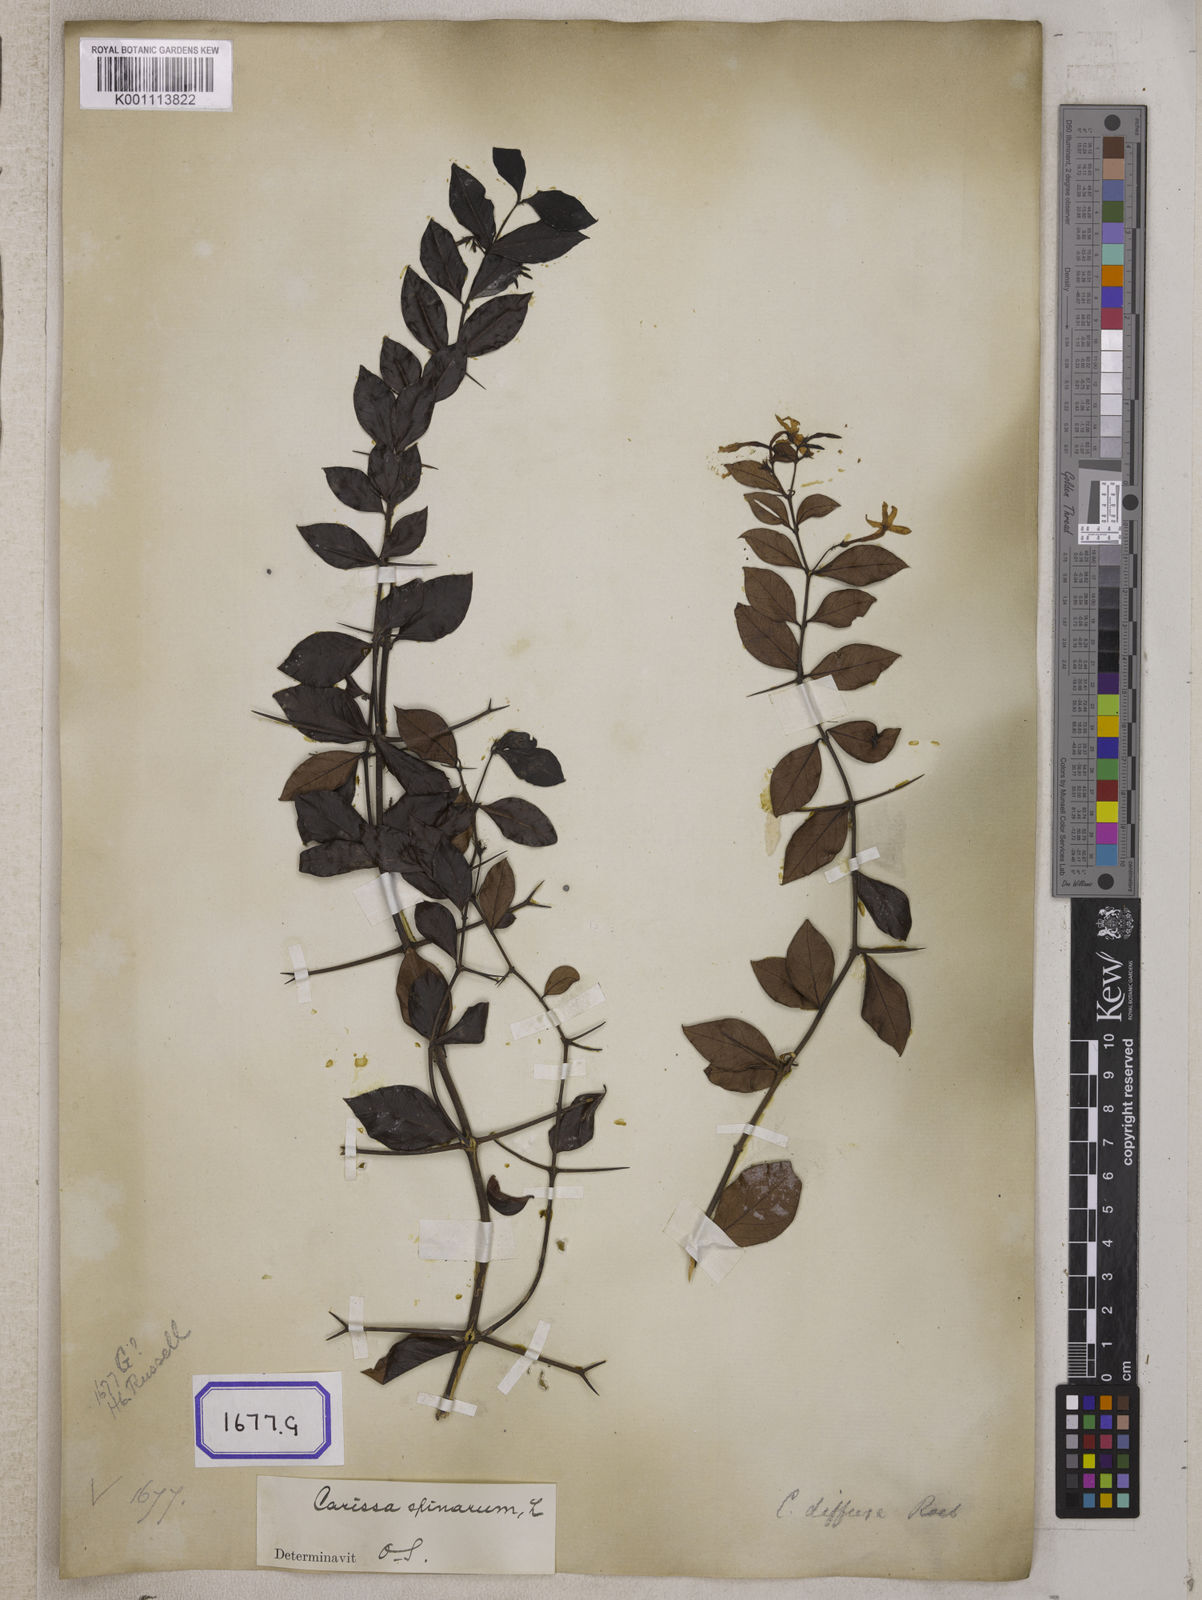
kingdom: Plantae
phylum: Tracheophyta
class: Magnoliopsida
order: Gentianales
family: Apocynaceae
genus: Carissa
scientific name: Carissa carandas
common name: Karanda
